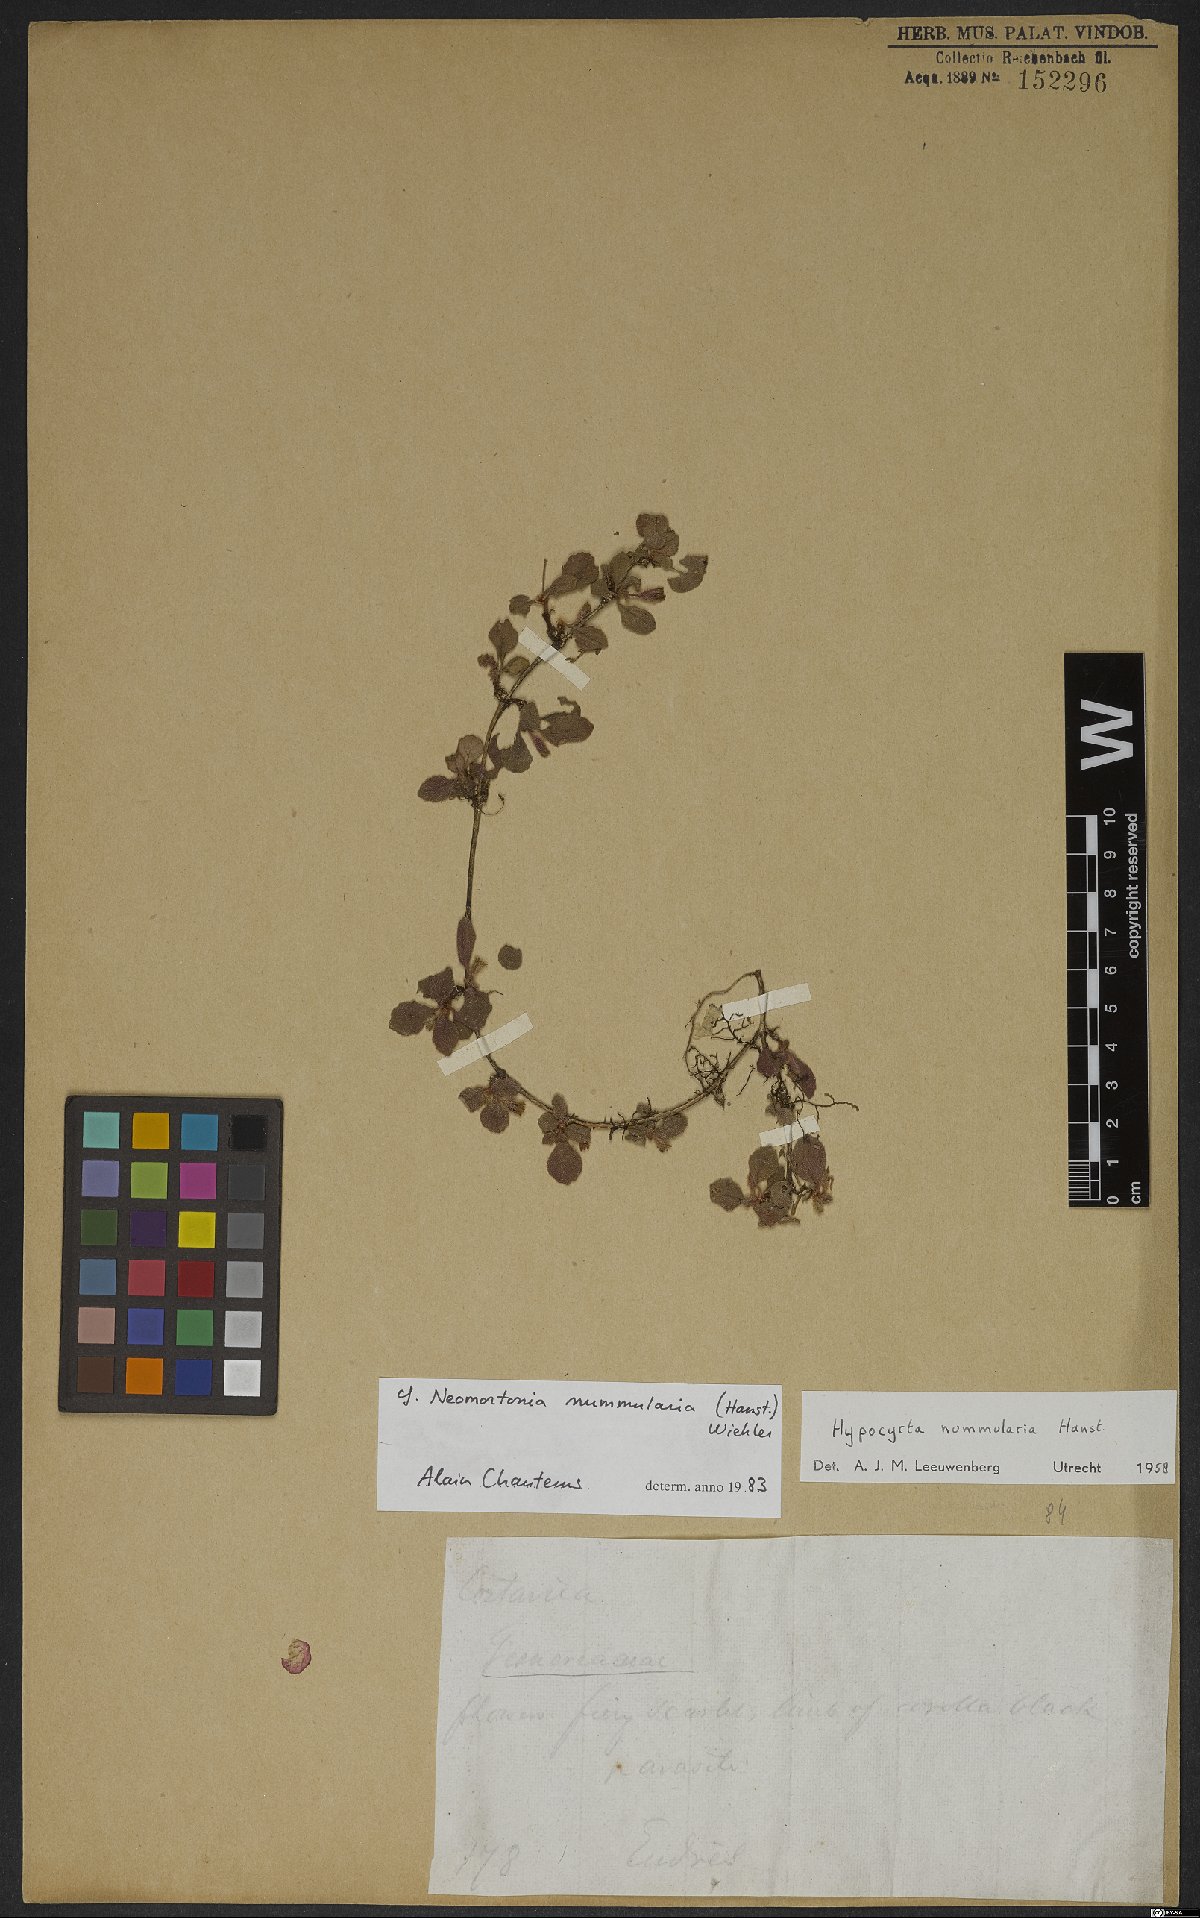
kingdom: Plantae
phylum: Tracheophyta
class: Magnoliopsida
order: Lamiales
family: Gesneriaceae
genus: Pachycaulos
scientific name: Pachycaulos nummularia
